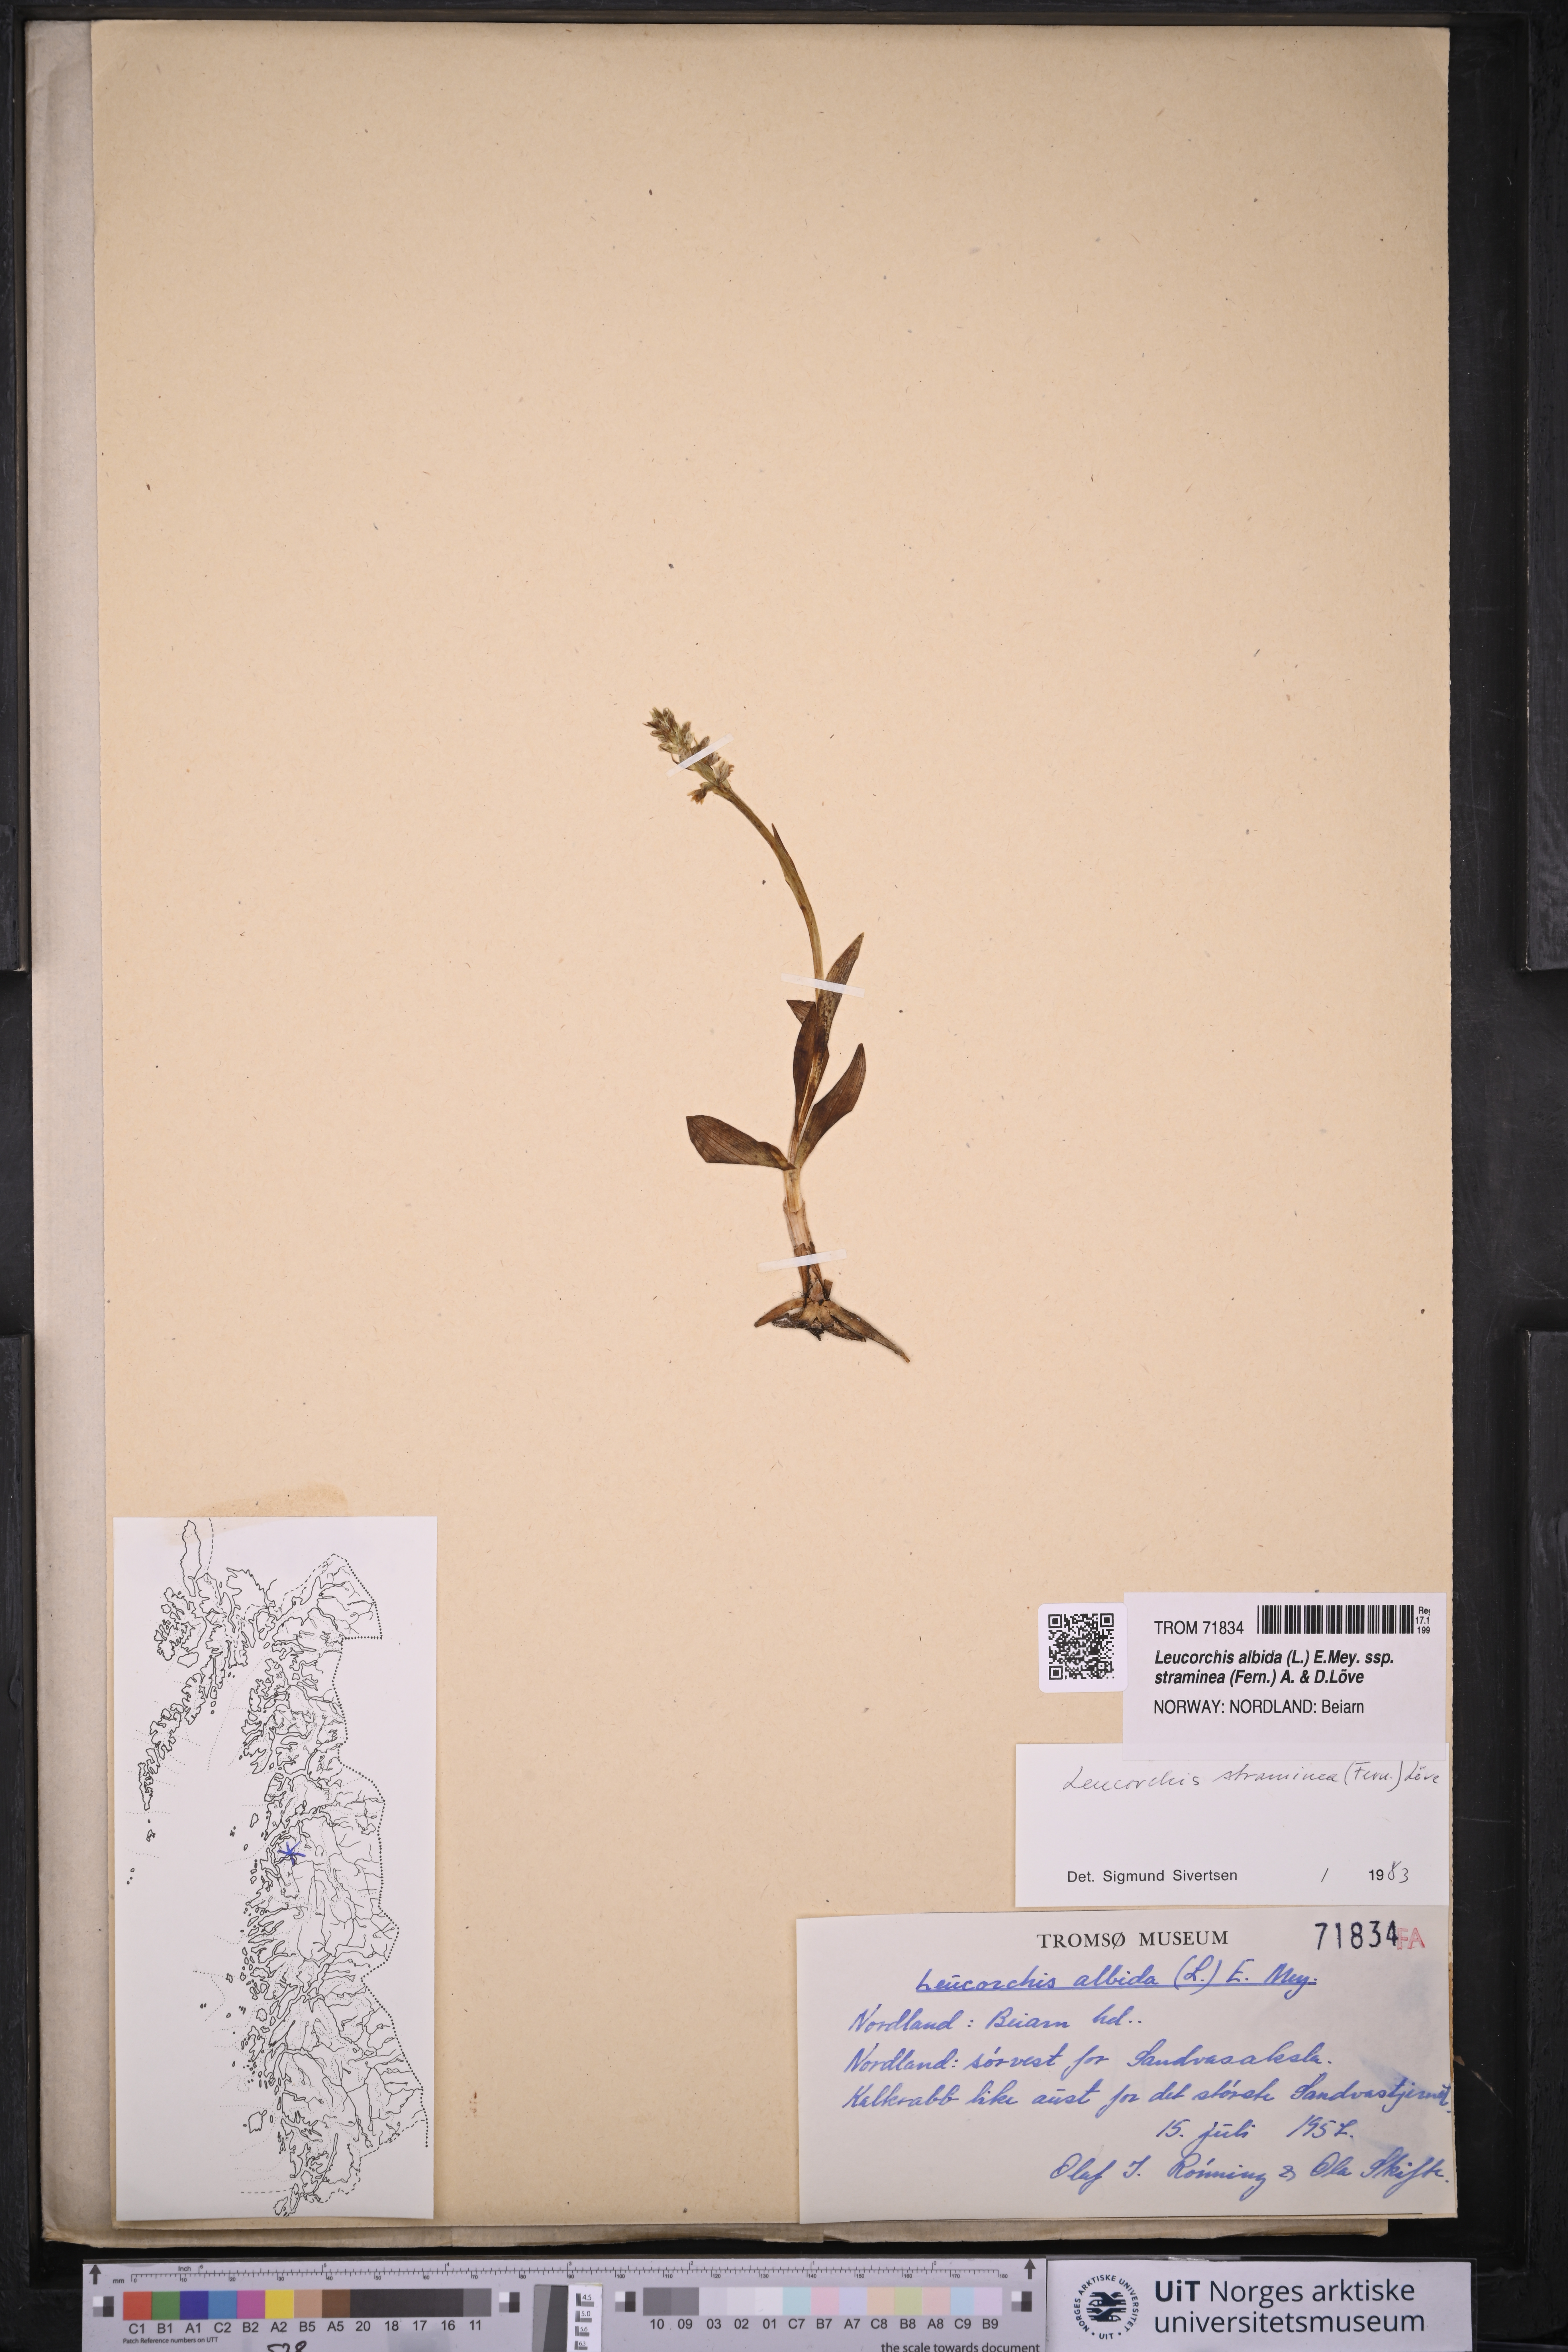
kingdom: Plantae
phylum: Tracheophyta
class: Liliopsida
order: Asparagales
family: Orchidaceae
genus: Pseudorchis
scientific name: Pseudorchis straminea
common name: Vanilla-scented bog orchid
